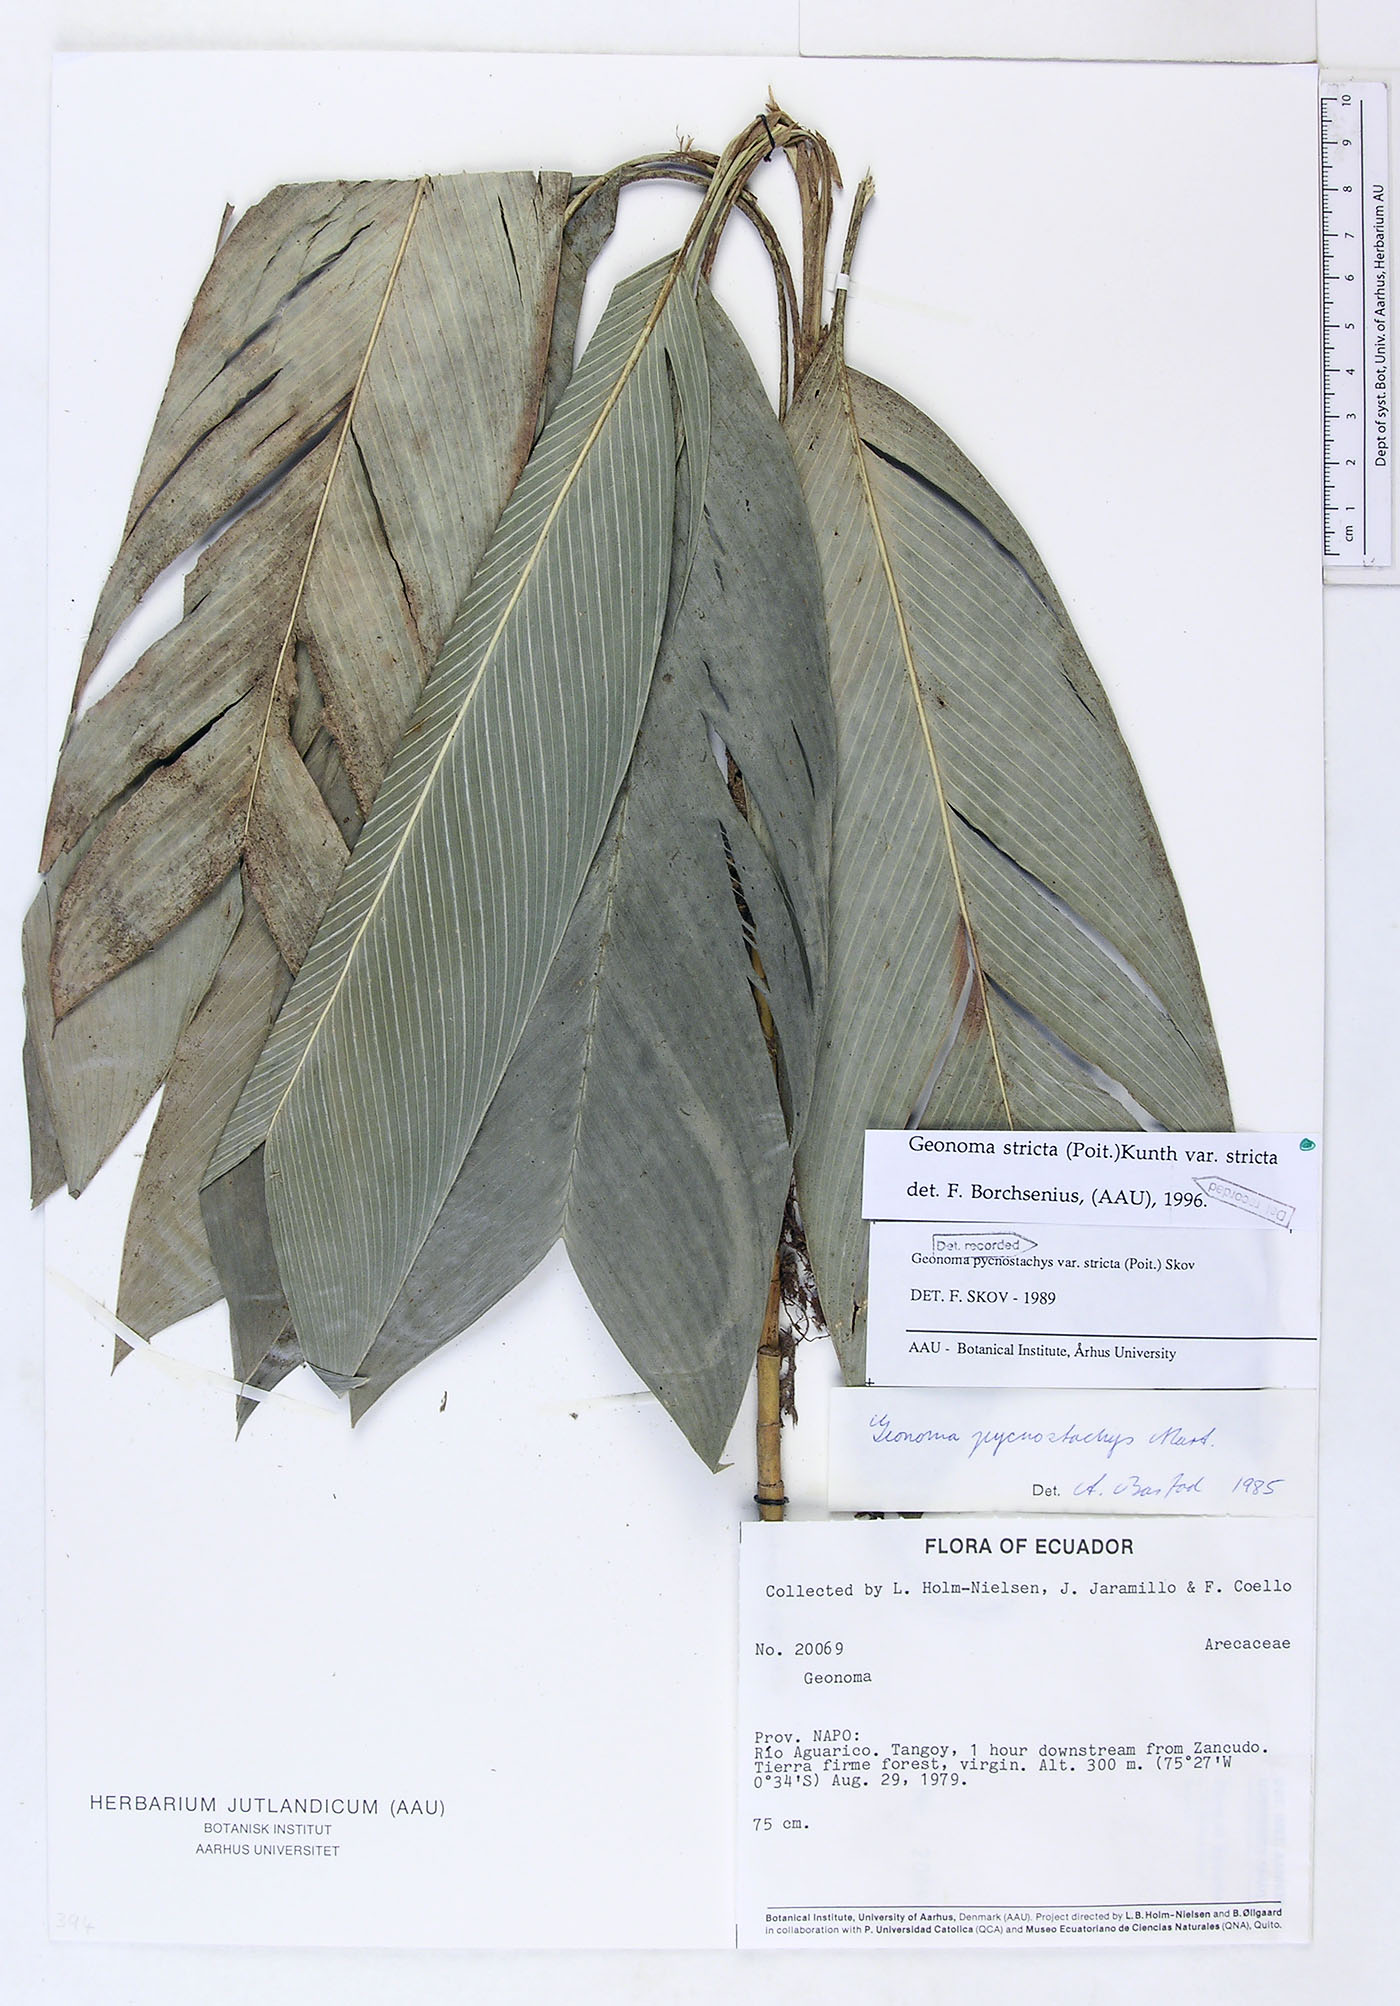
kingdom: Plantae
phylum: Tracheophyta
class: Liliopsida
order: Arecales
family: Arecaceae
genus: Geonoma
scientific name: Geonoma stricta
